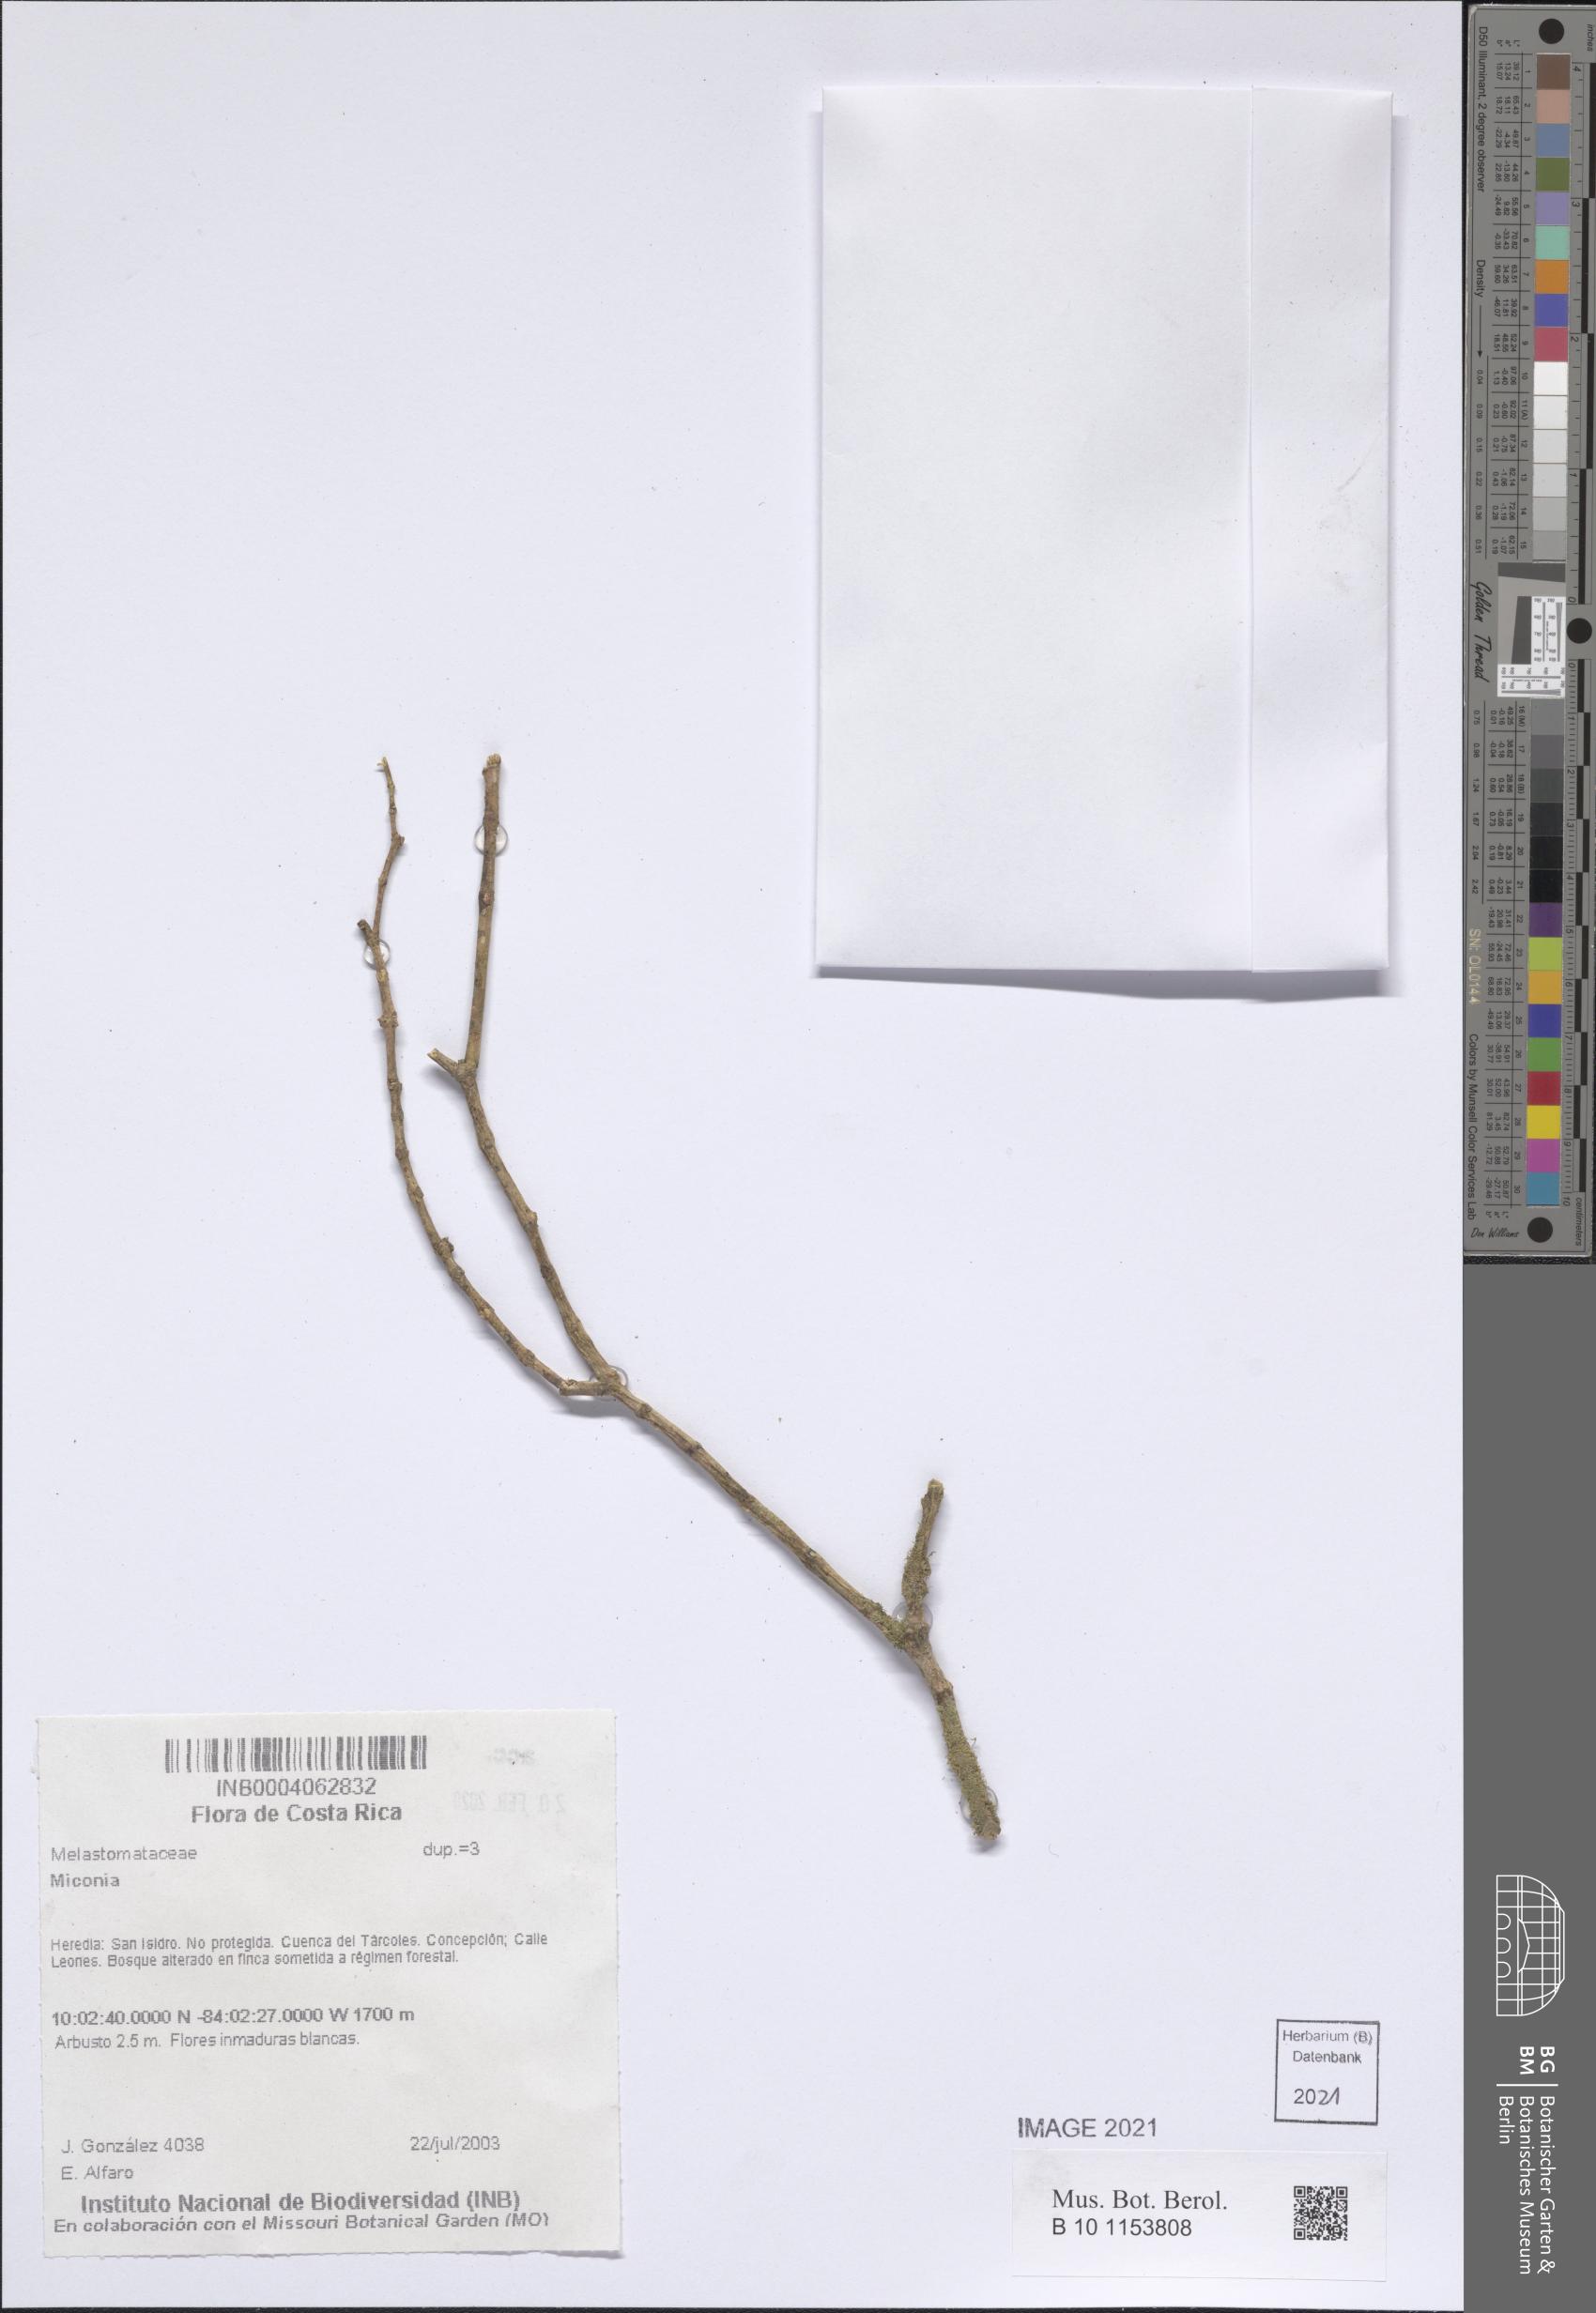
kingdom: Plantae
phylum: Tracheophyta
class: Magnoliopsida
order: Myrtales
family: Melastomataceae
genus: Miconia
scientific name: Miconia
